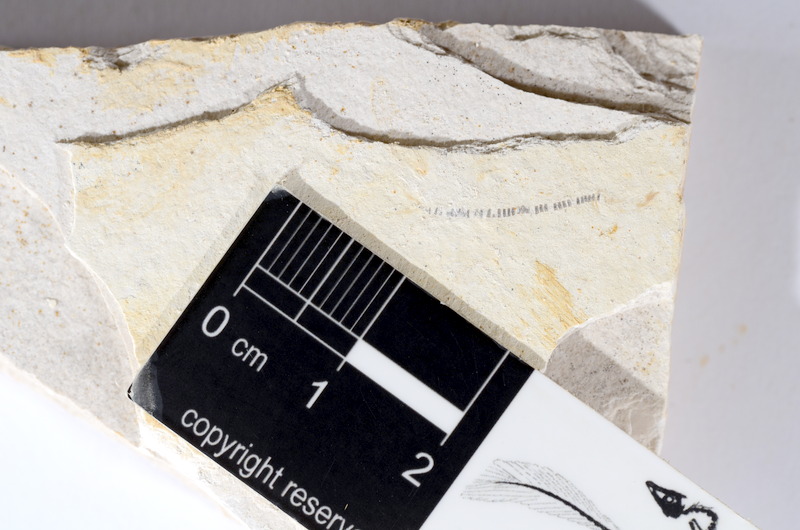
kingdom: Animalia
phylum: Chordata
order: Salmoniformes
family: Orthogonikleithridae
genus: Orthogonikleithrus
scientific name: Orthogonikleithrus hoelli
